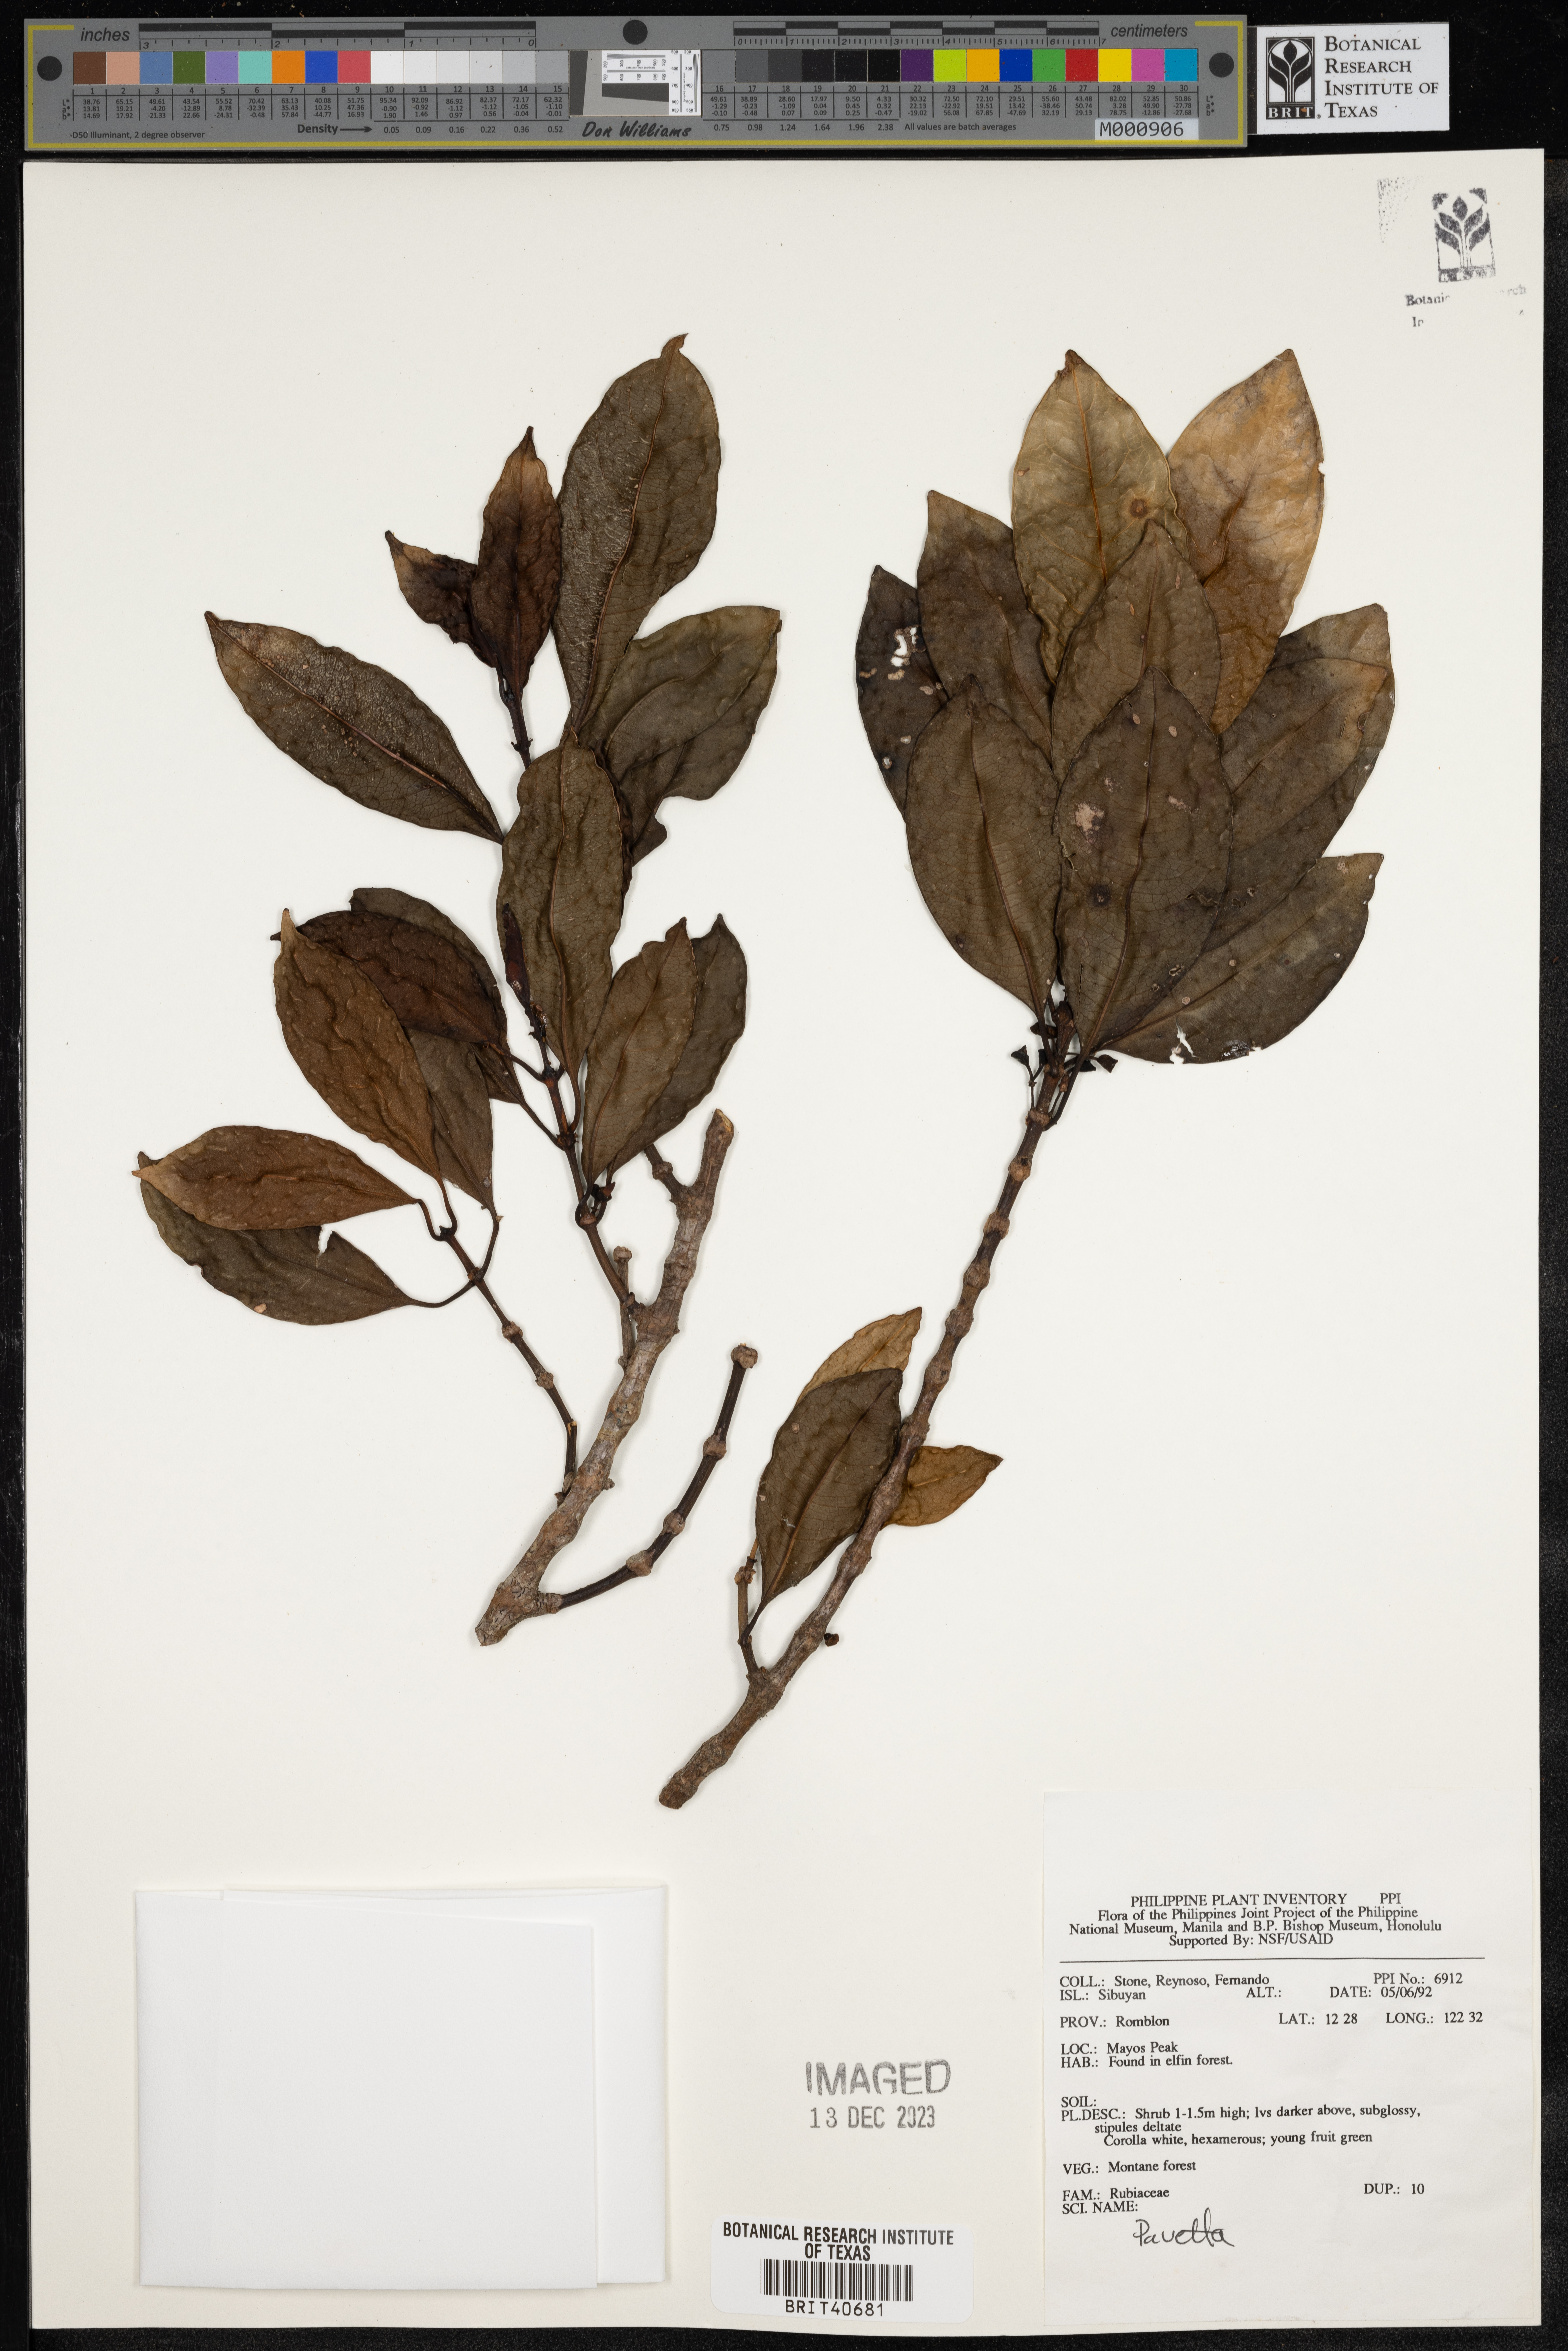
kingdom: Plantae
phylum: Tracheophyta
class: Magnoliopsida
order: Gentianales
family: Rubiaceae
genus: Pavetta
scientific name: Pavetta
